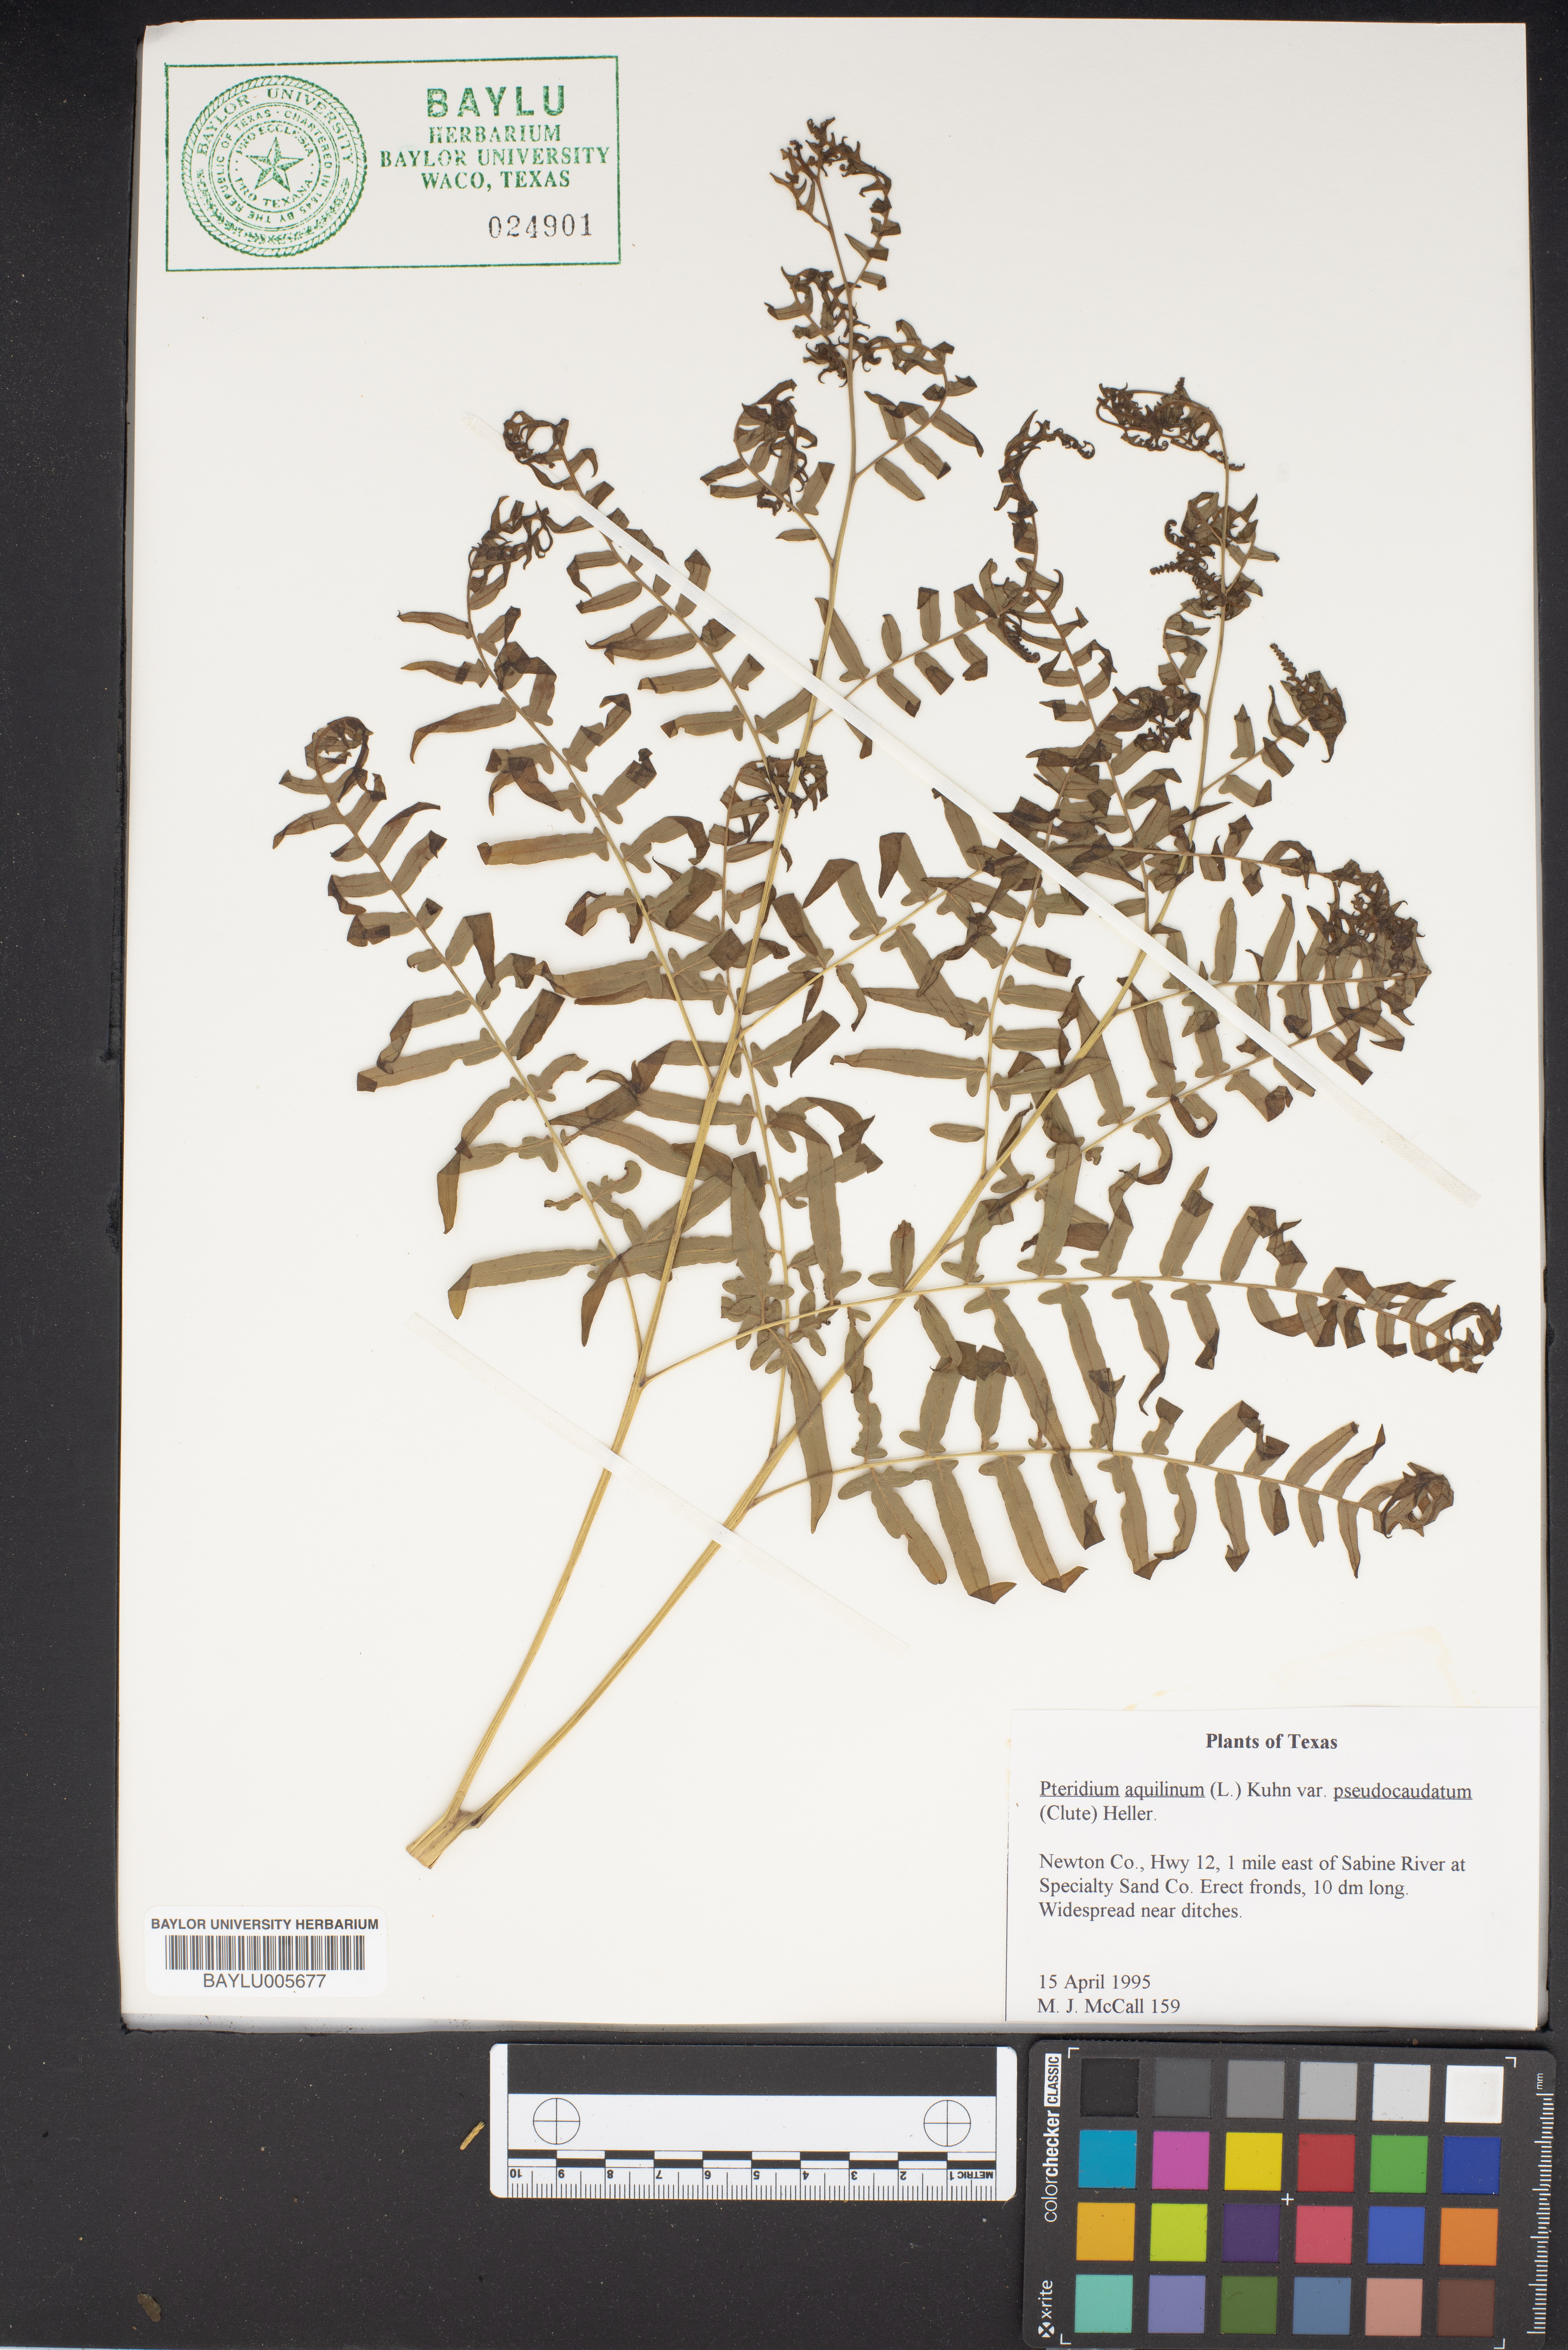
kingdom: Plantae
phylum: Tracheophyta
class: Polypodiopsida
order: Polypodiales
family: Dennstaedtiaceae
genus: Pteridium
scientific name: Pteridium aquilinum
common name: Bracken
